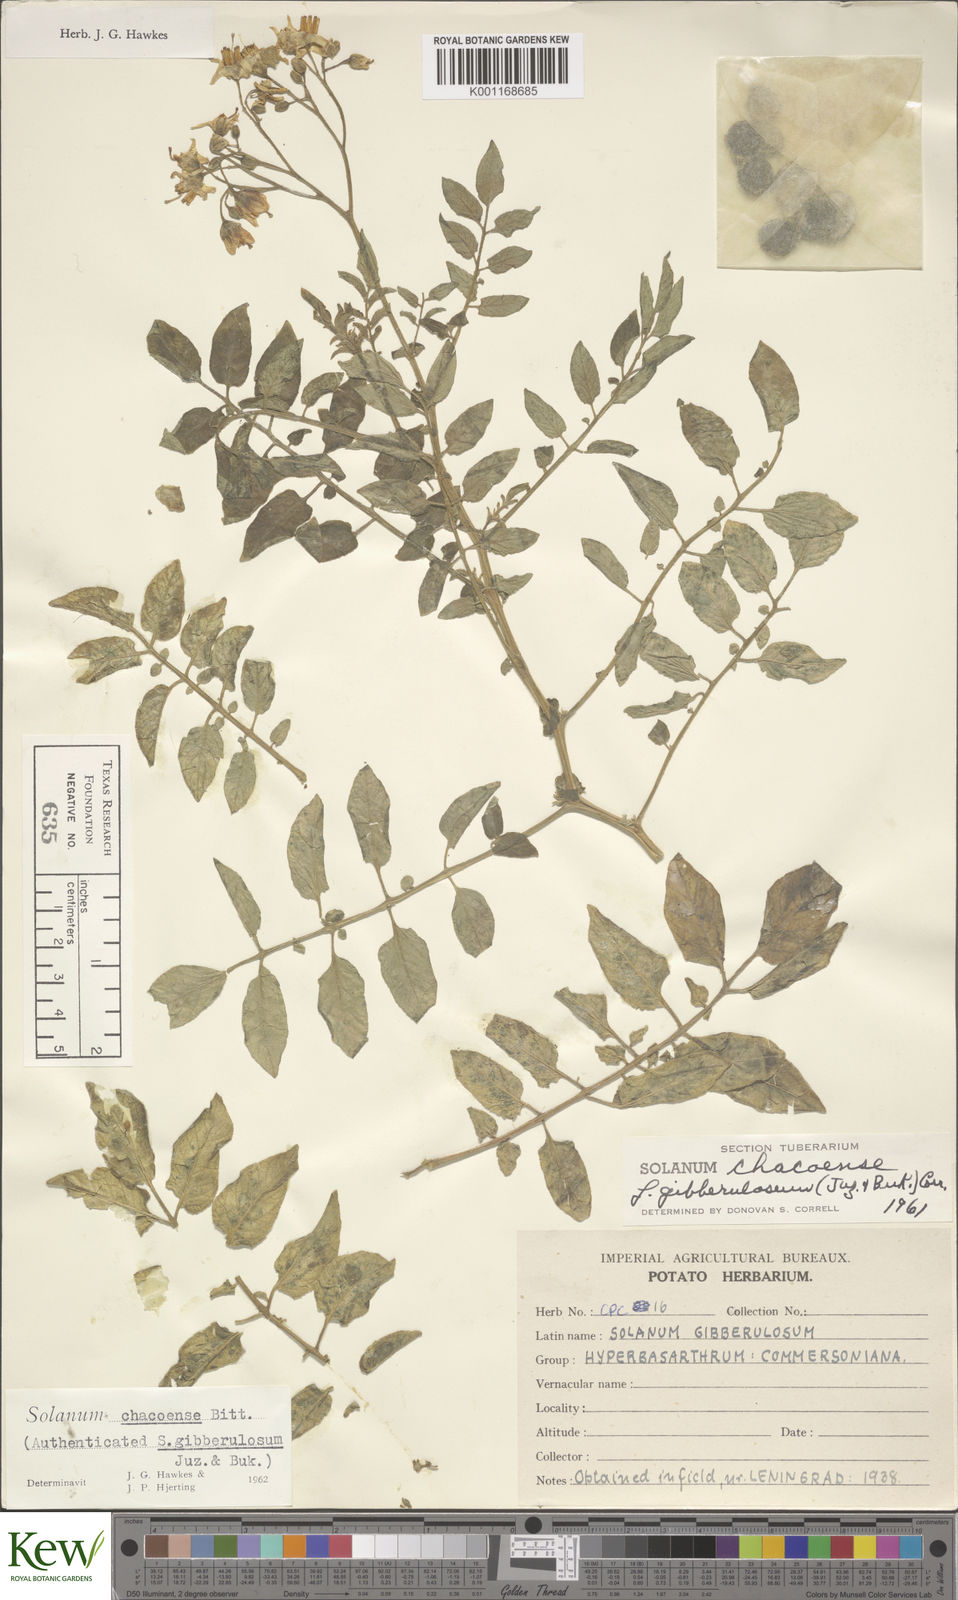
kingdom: Plantae
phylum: Tracheophyta
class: Magnoliopsida
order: Solanales
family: Solanaceae
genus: Solanum
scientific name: Solanum chacoense
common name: Chaco potato
